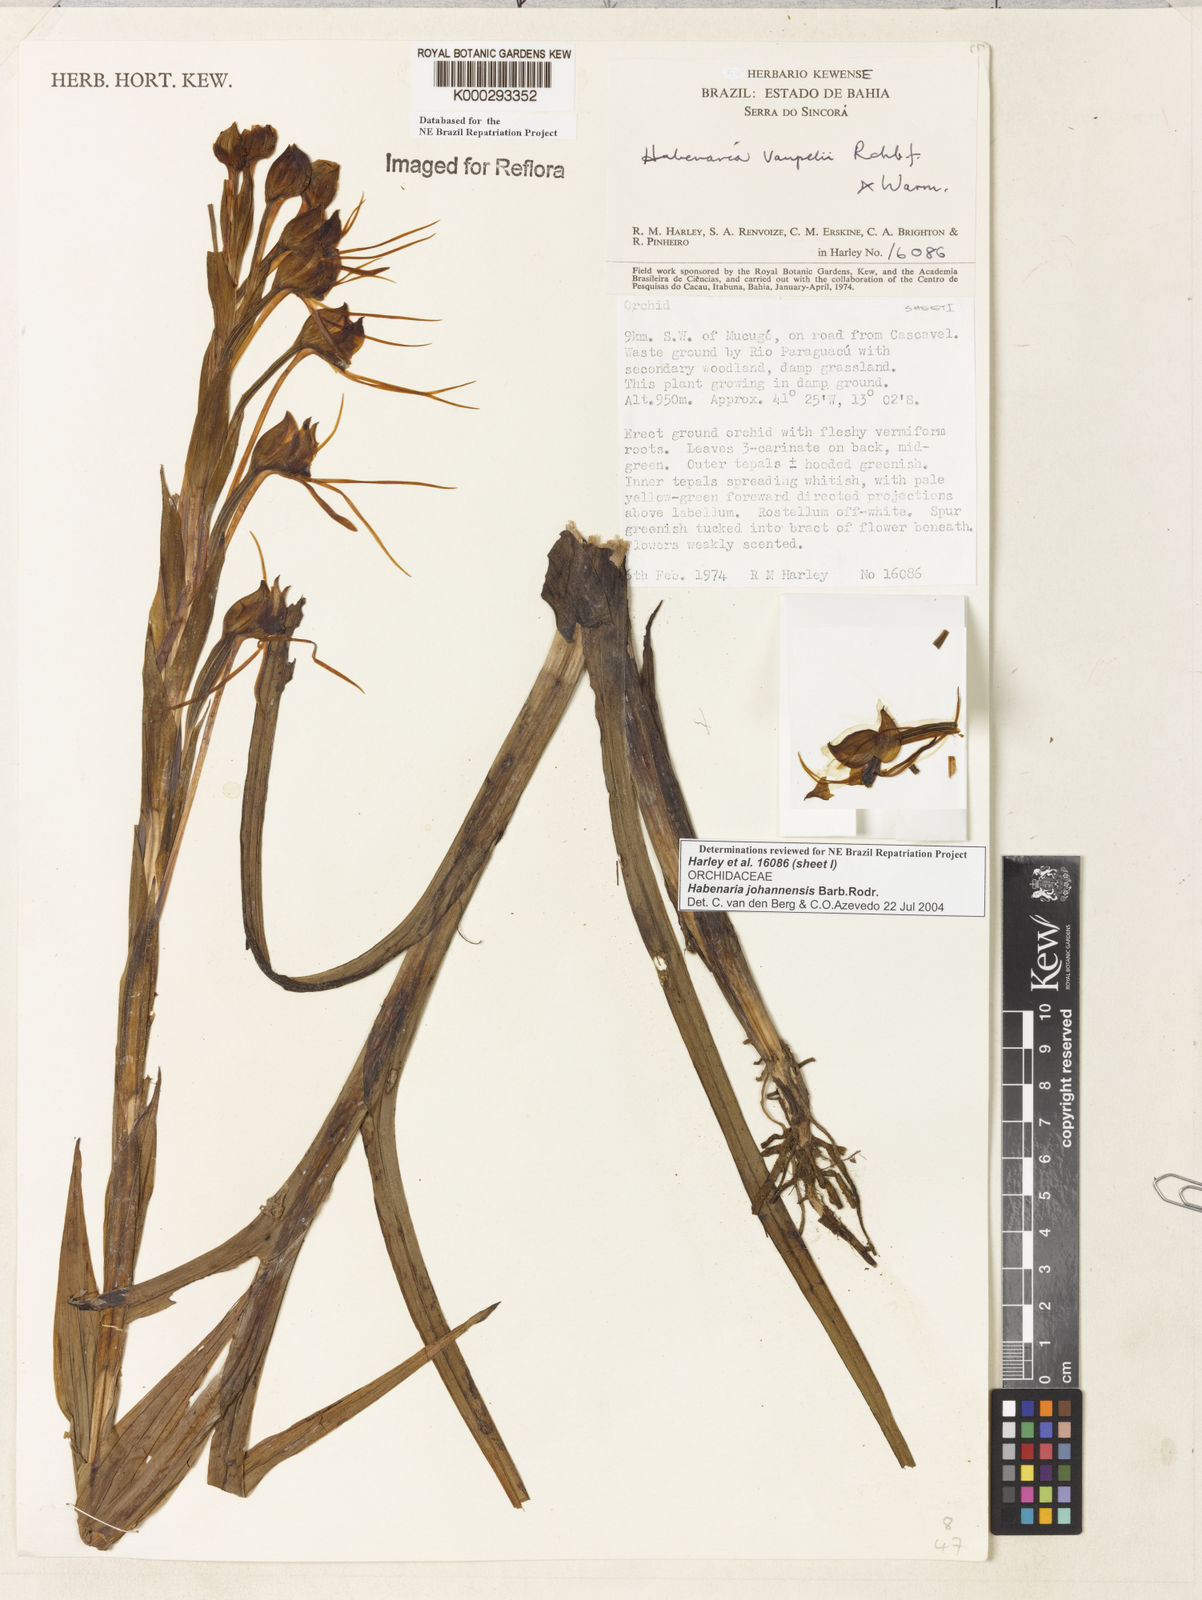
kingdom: Plantae
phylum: Tracheophyta
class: Liliopsida
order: Asparagales
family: Orchidaceae
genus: Habenaria
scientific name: Habenaria johannensis
